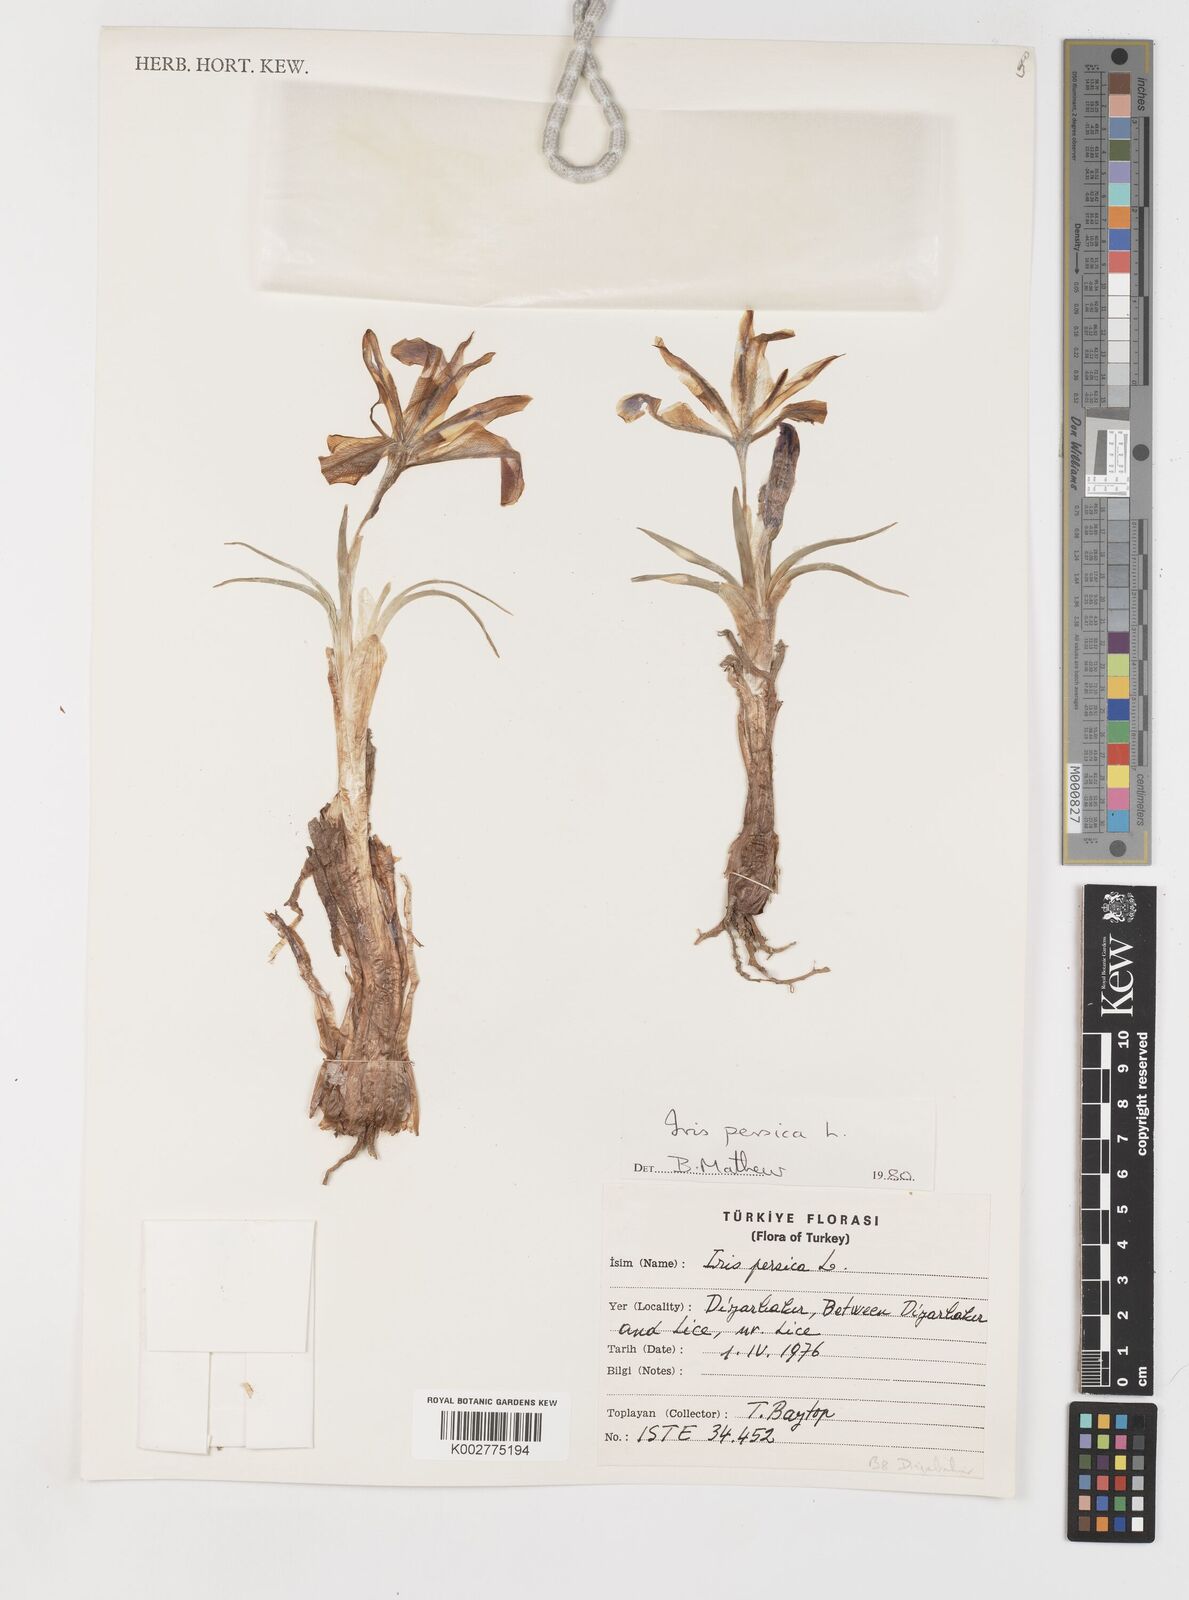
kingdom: Plantae
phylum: Tracheophyta
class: Liliopsida
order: Asparagales
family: Iridaceae
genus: Iris
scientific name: Iris persica
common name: Persian iris
